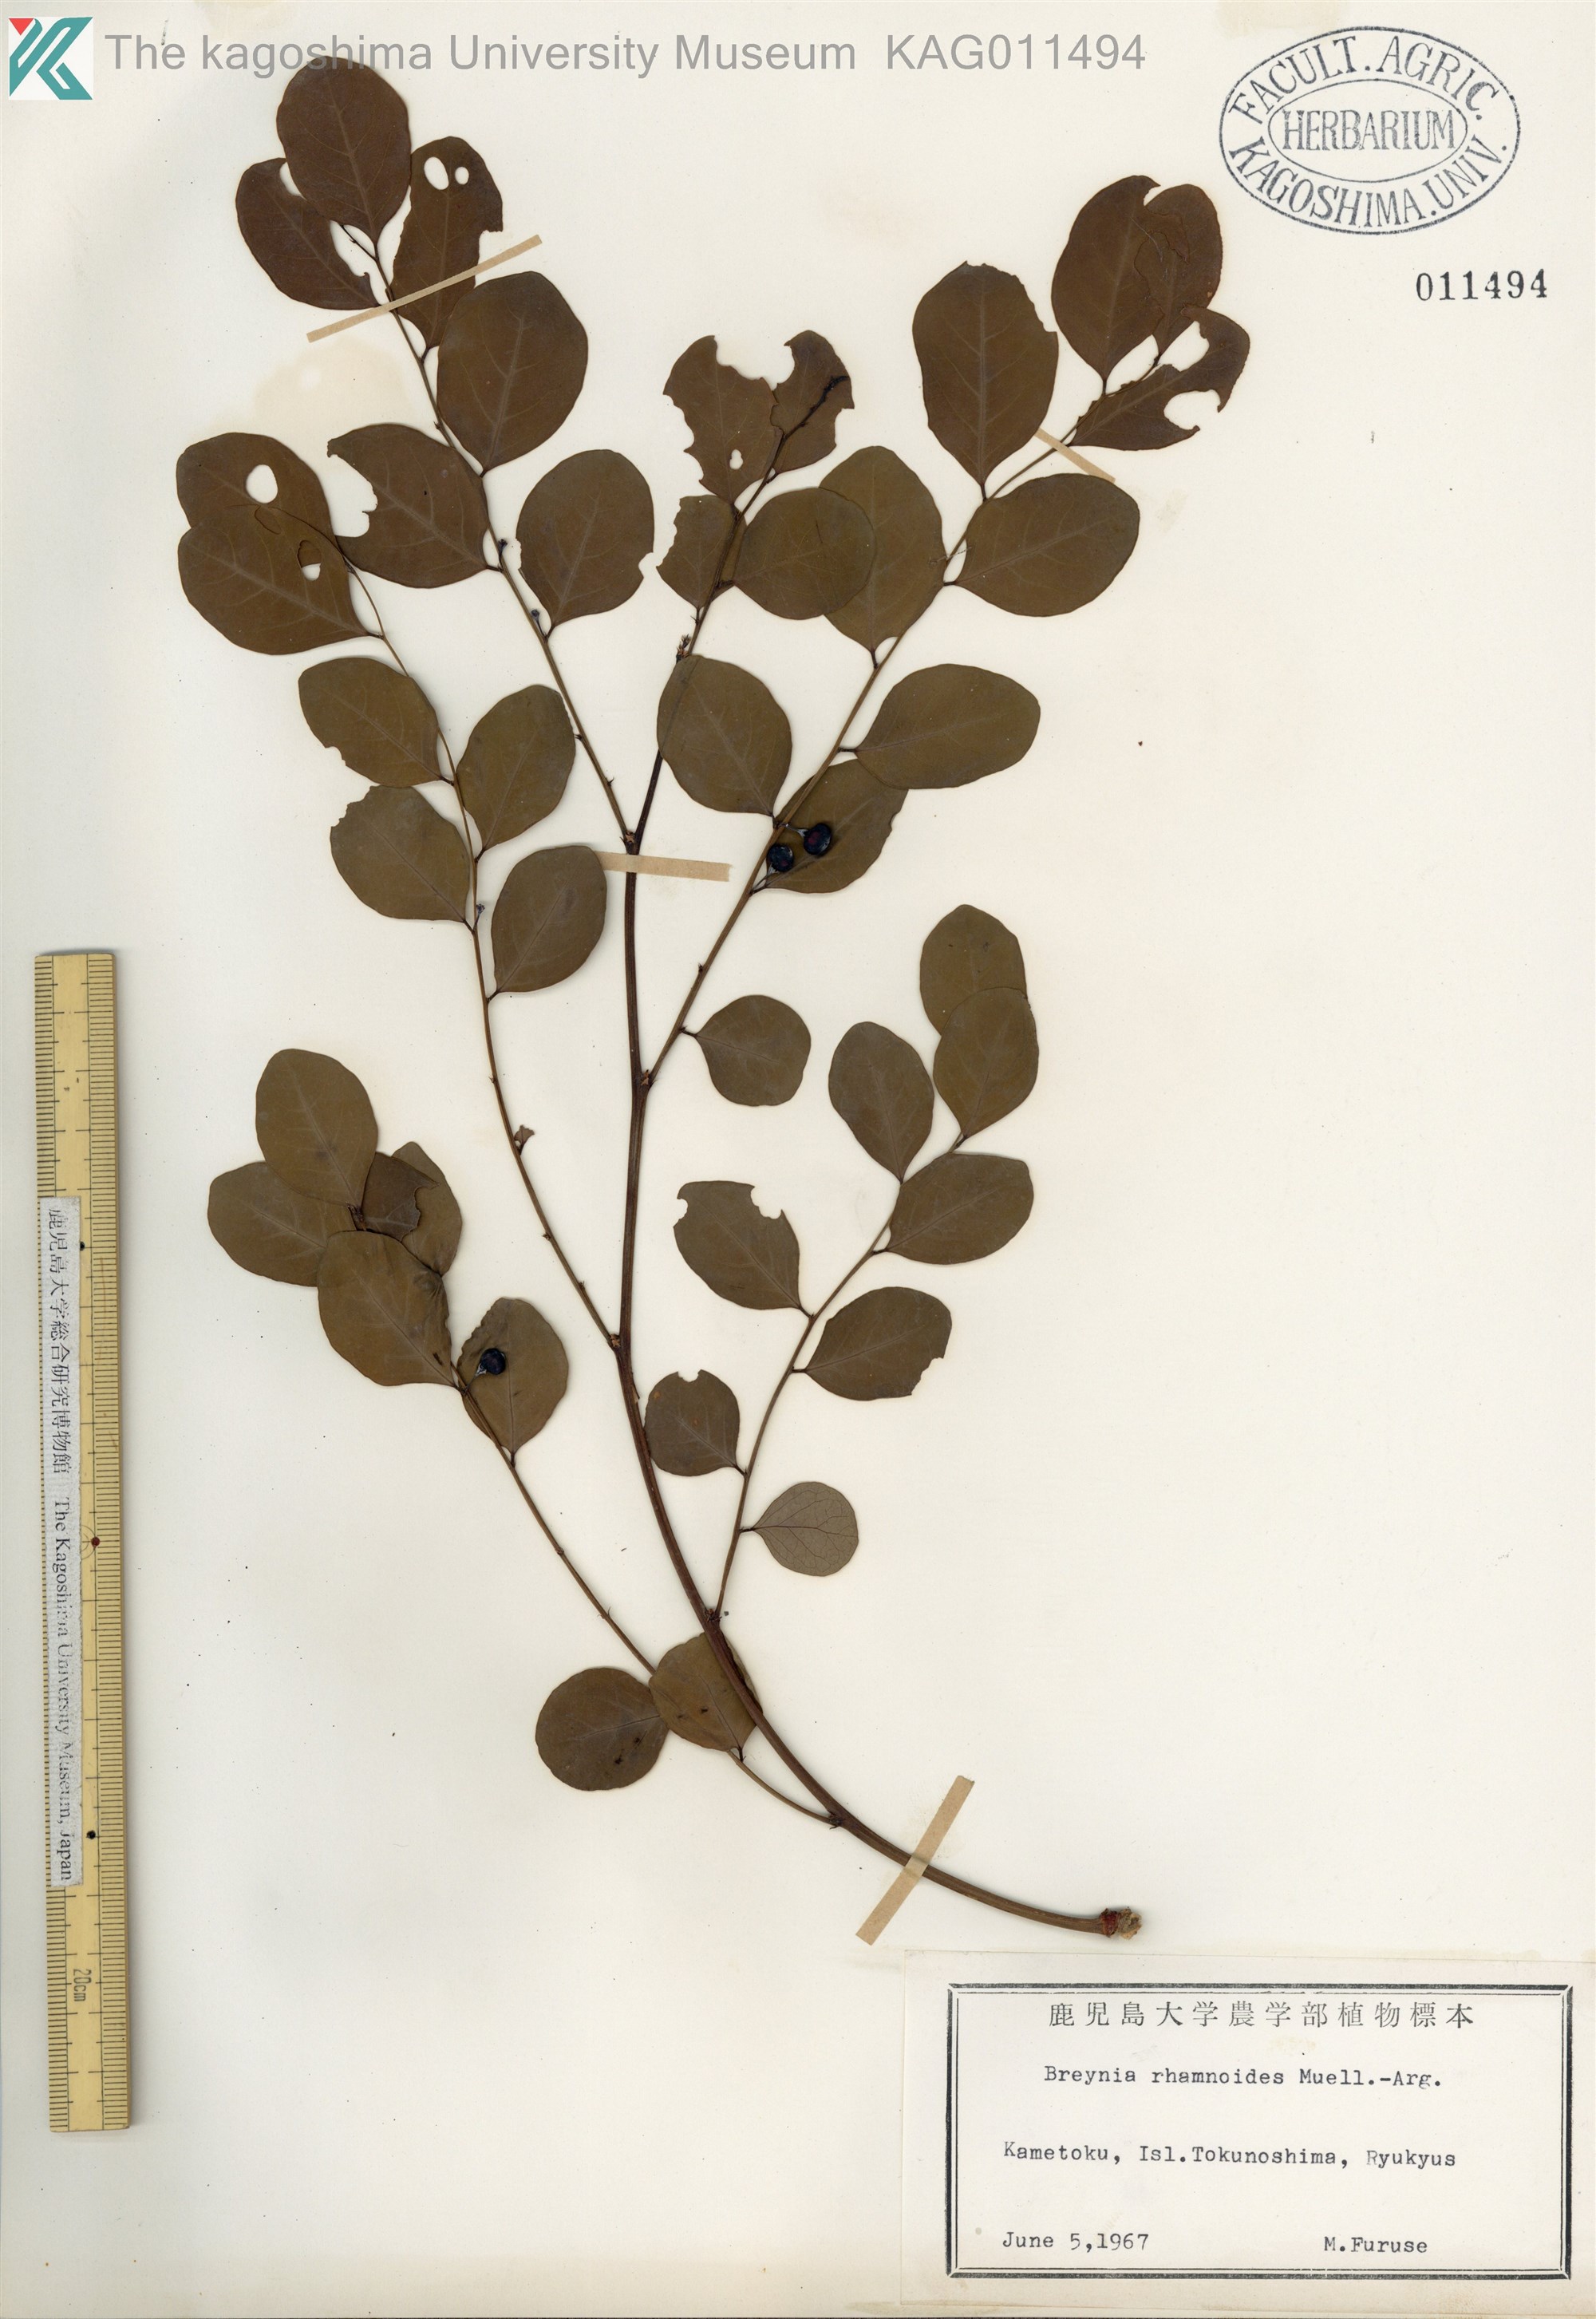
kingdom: Plantae
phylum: Tracheophyta
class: Magnoliopsida
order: Malpighiales
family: Phyllanthaceae
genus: Breynia
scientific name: Breynia vitis-idaea
